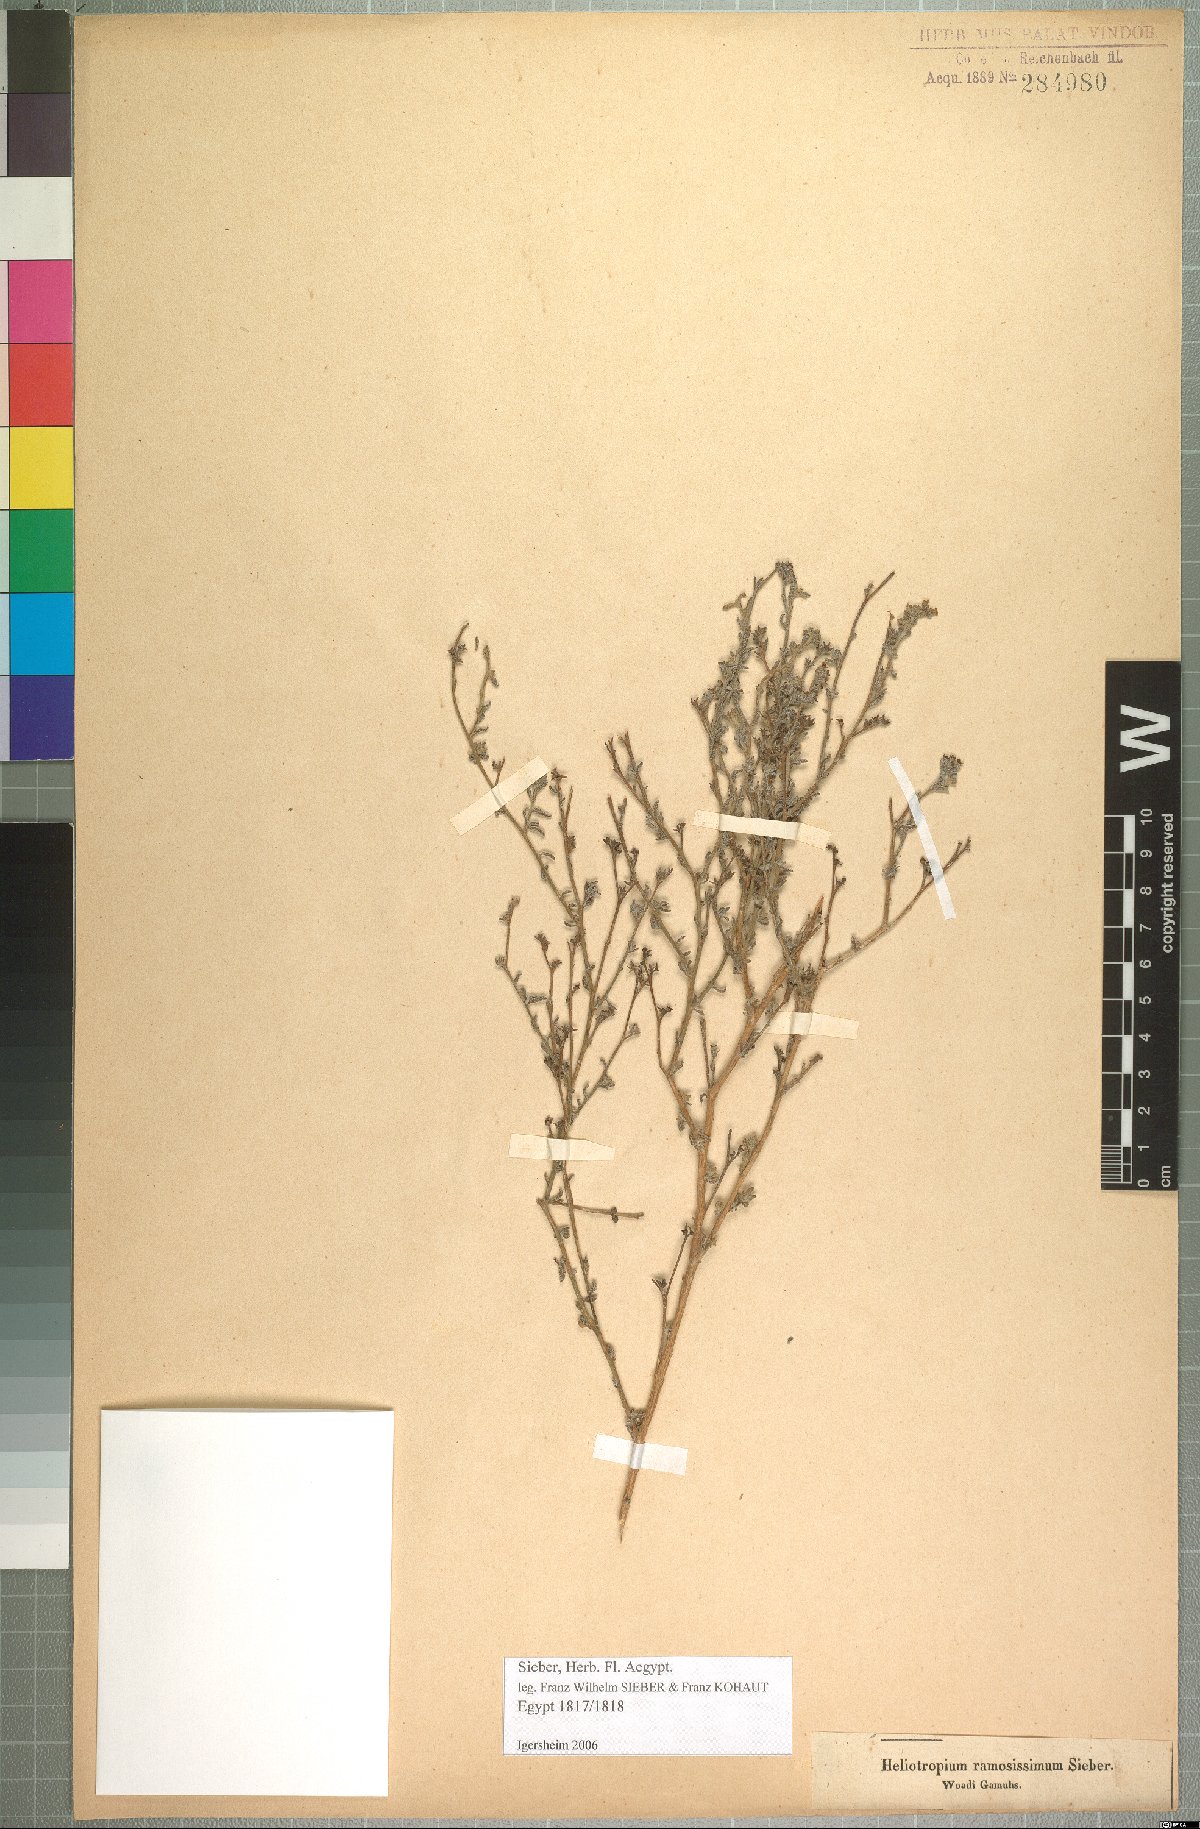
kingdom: Plantae
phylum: Tracheophyta
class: Magnoliopsida
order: Boraginales
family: Heliotropiaceae
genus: Heliotropium
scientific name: Heliotropium bacciferum
